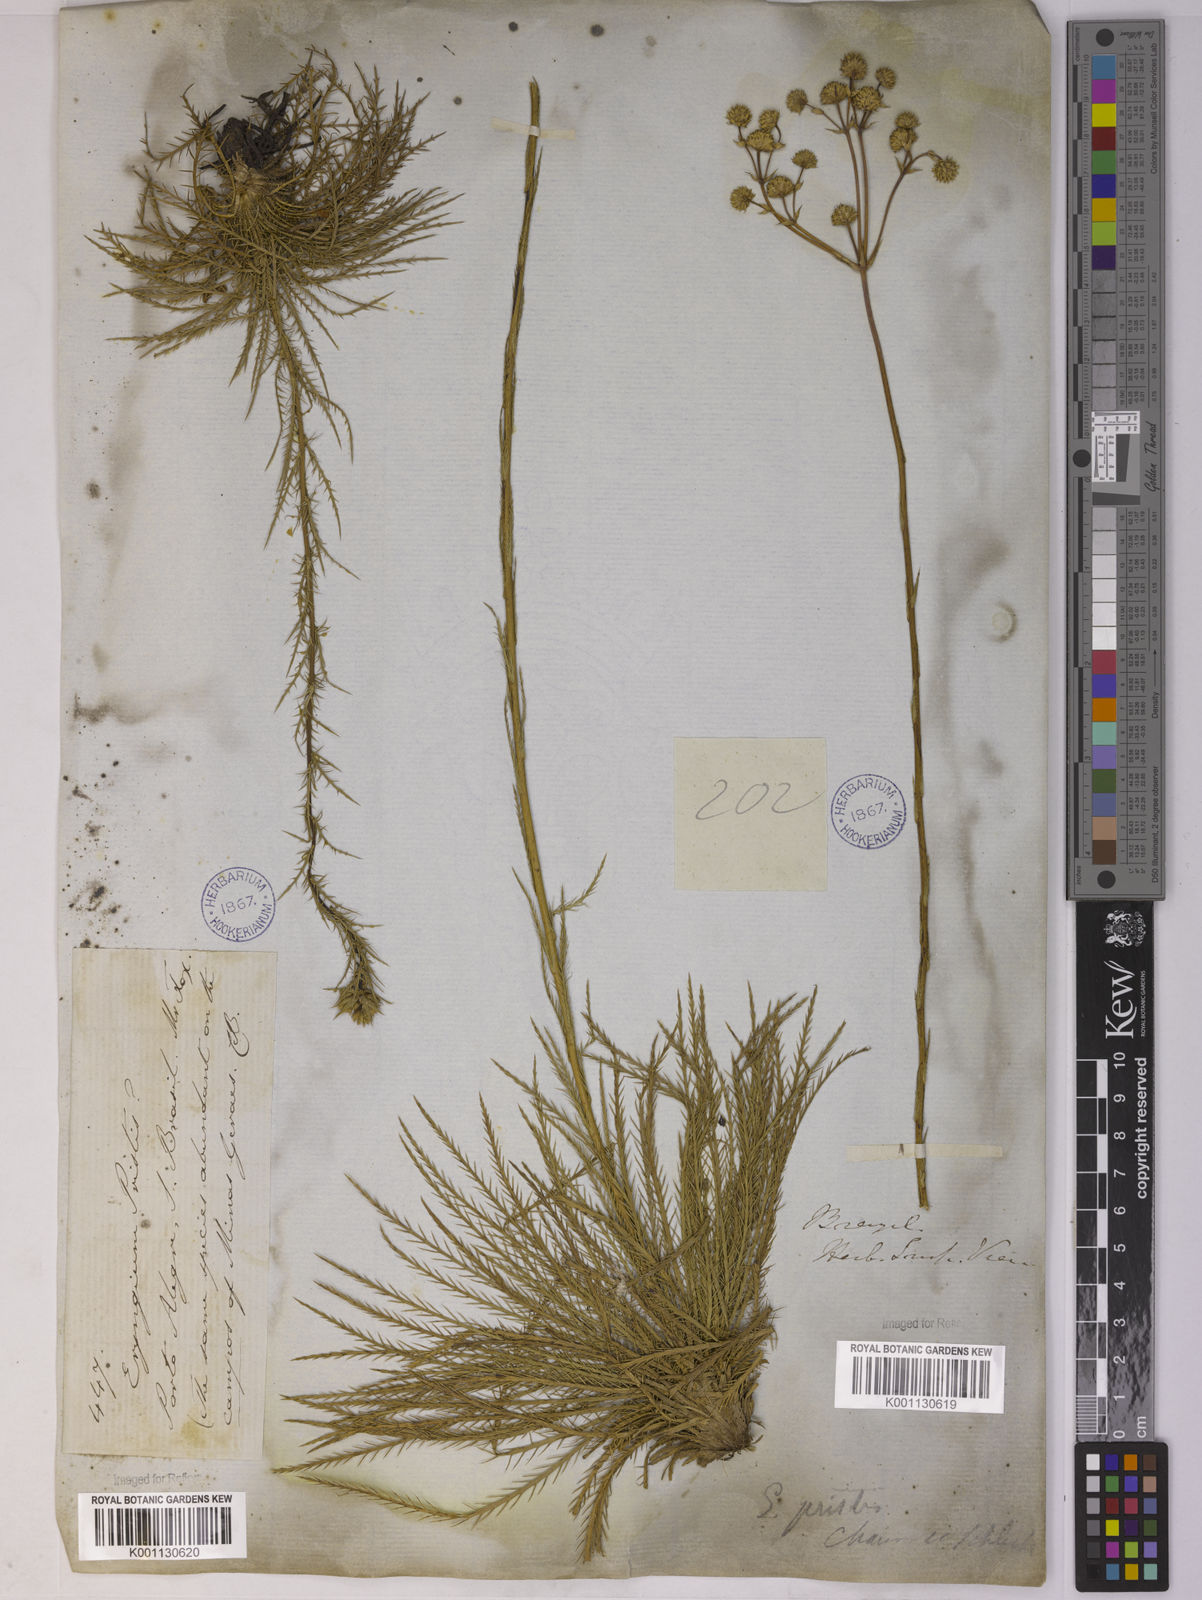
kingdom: Plantae
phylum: Tracheophyta
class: Magnoliopsida
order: Apiales
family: Apiaceae
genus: Eryngium
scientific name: Eryngium pristis
